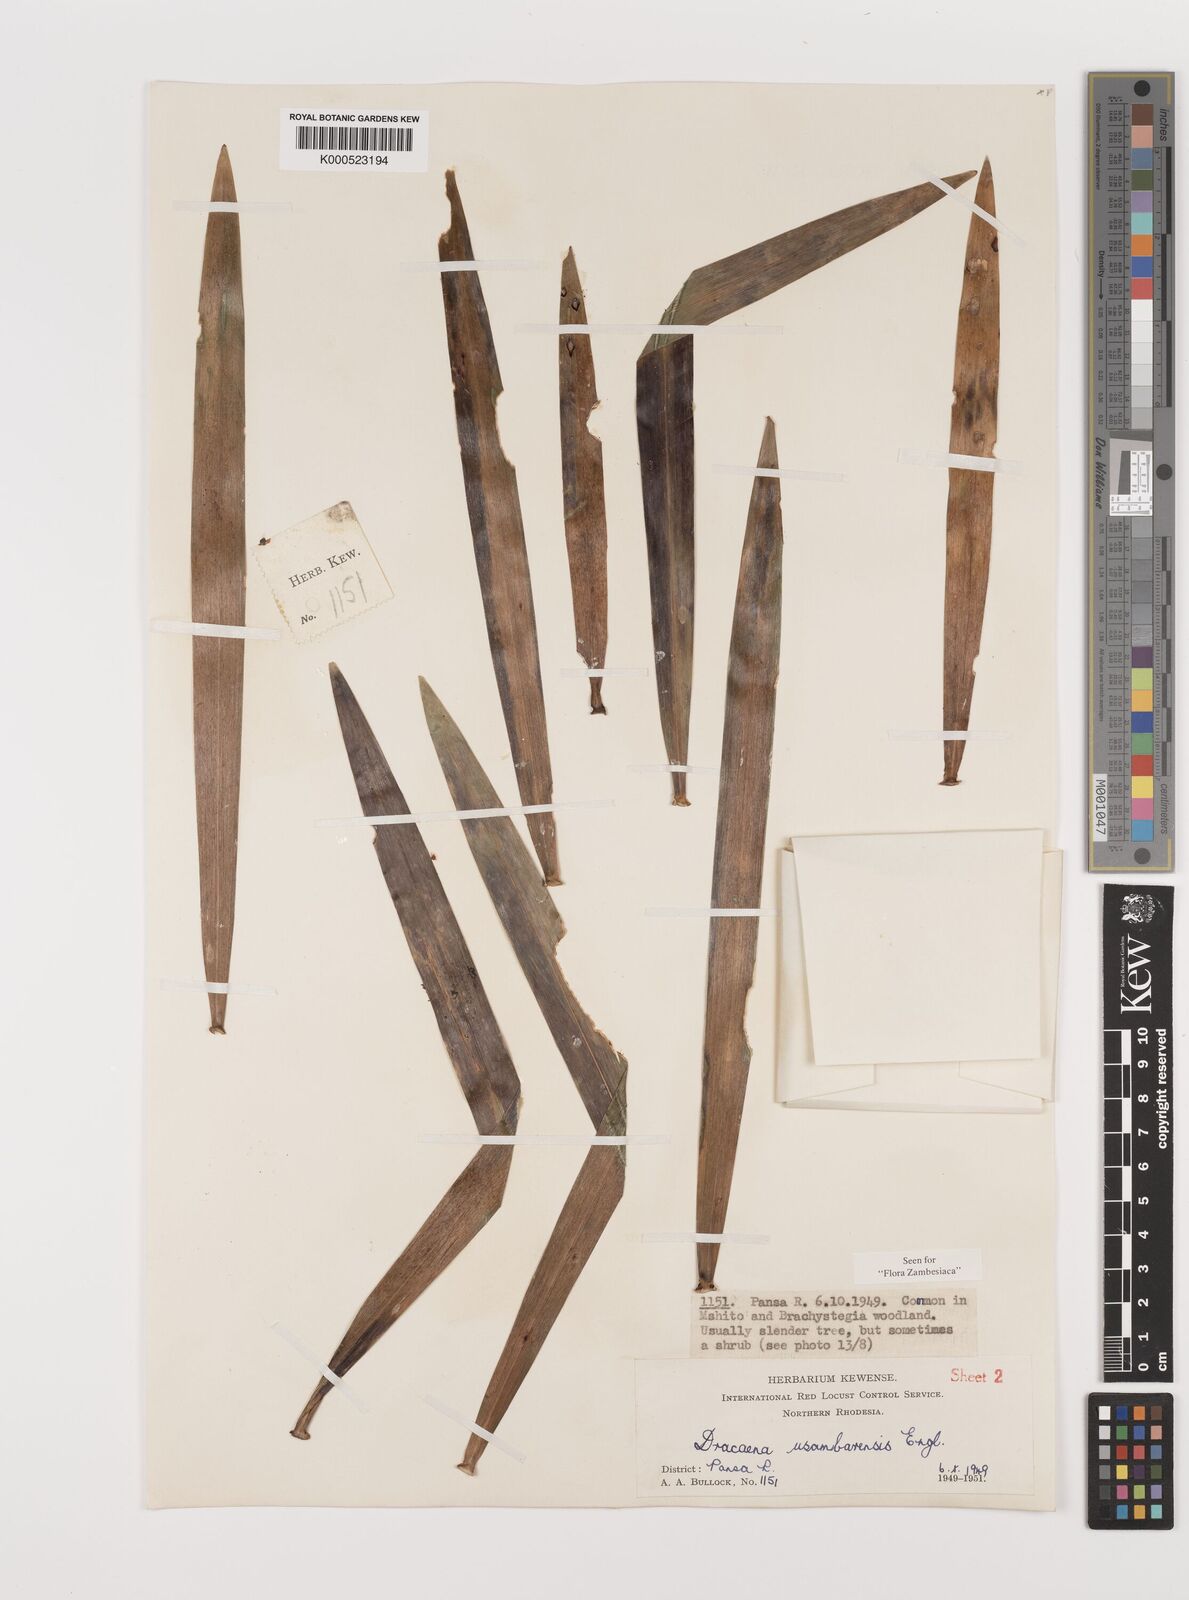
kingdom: Plantae
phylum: Tracheophyta
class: Liliopsida
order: Asparagales
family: Asparagaceae
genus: Dracaena
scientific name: Dracaena usambarensis
